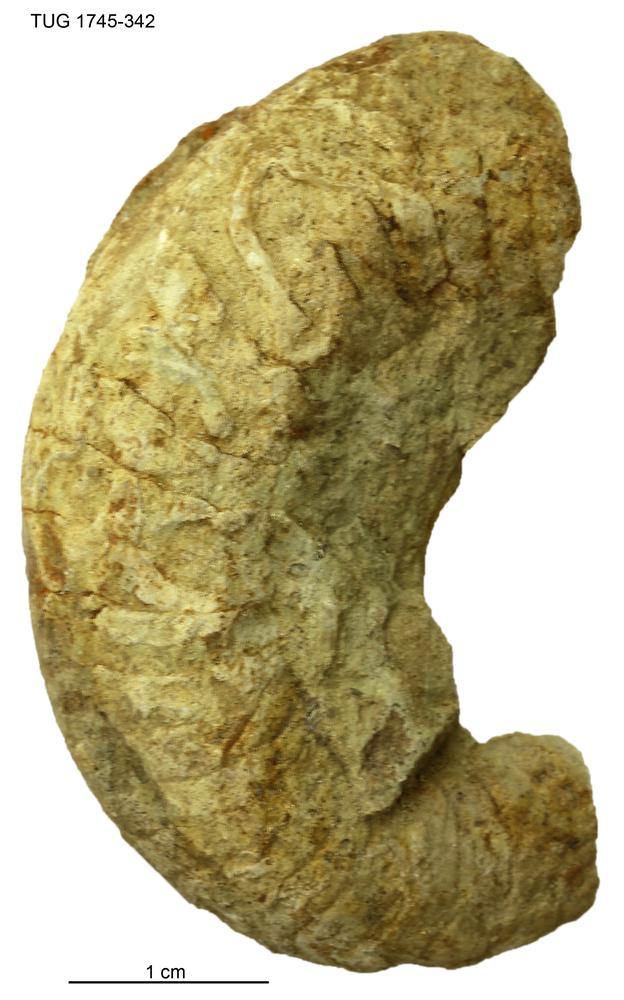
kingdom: Animalia
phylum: Mollusca
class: Cephalopoda
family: Tarphyceratidae
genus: Rectanguloceras
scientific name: Rectanguloceras
